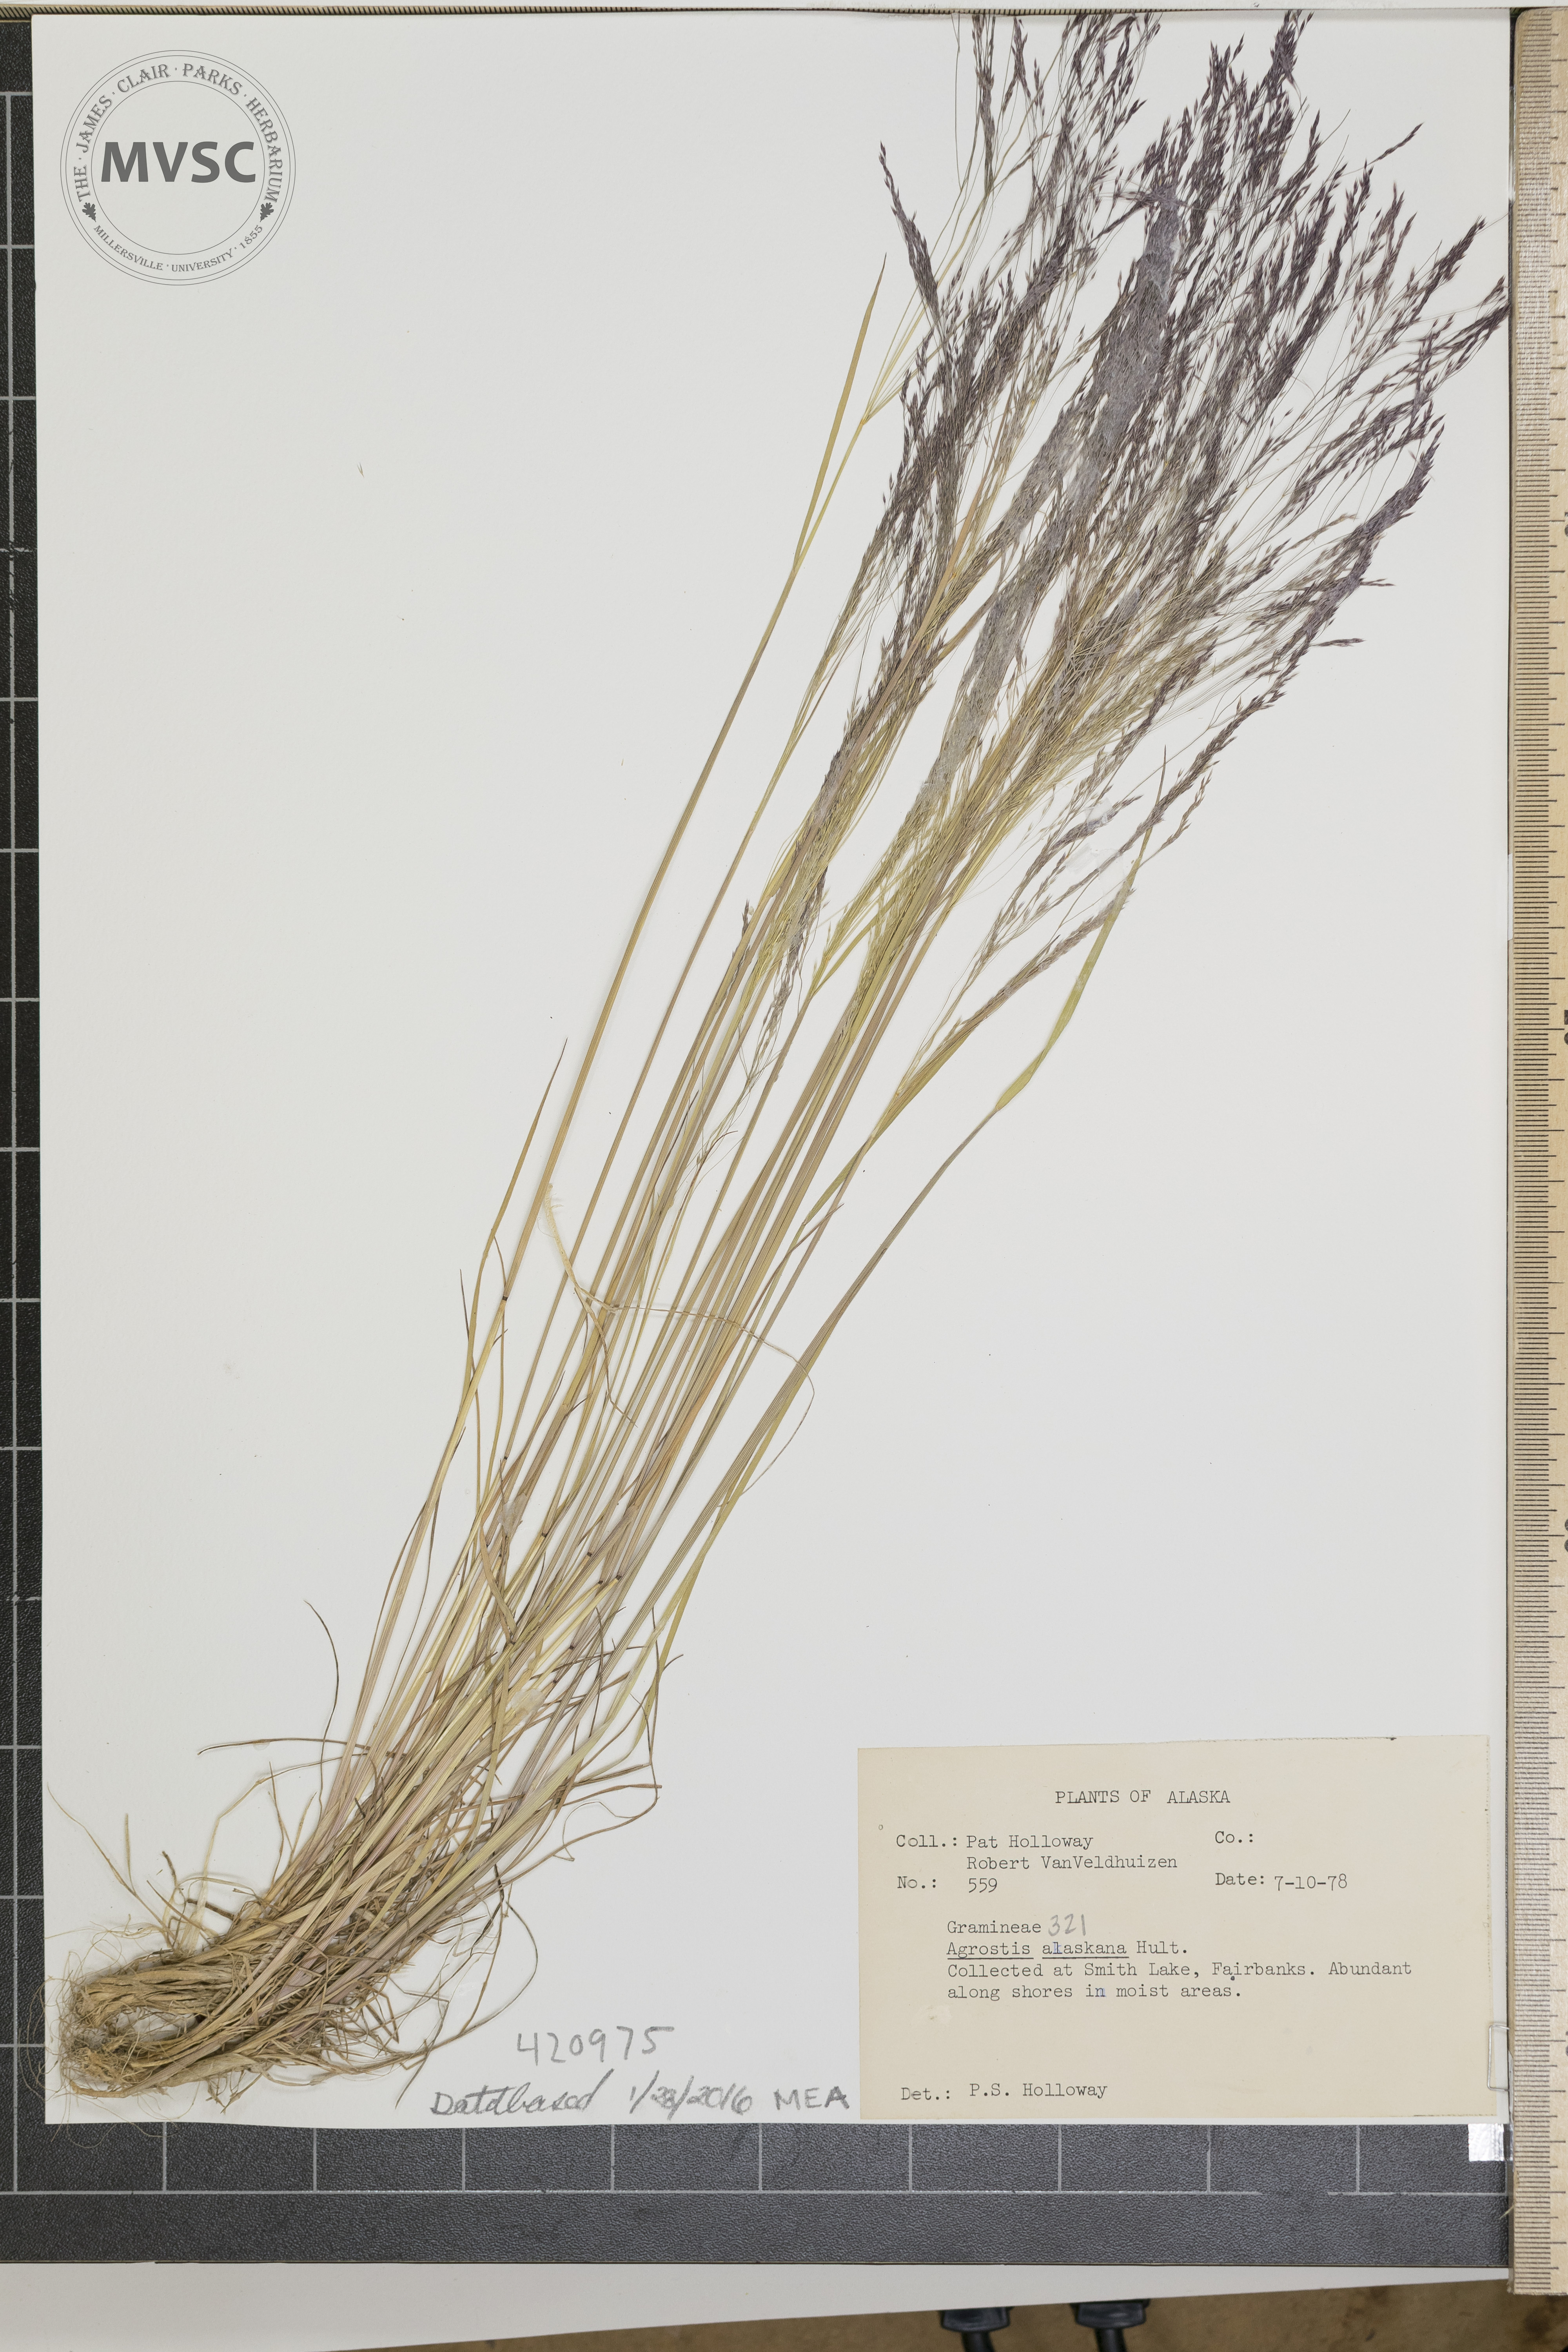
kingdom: Plantae
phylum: Tracheophyta
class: Liliopsida
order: Poales
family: Poaceae
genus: Agrostis
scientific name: Agrostis exarata
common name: Spike bentgrass
